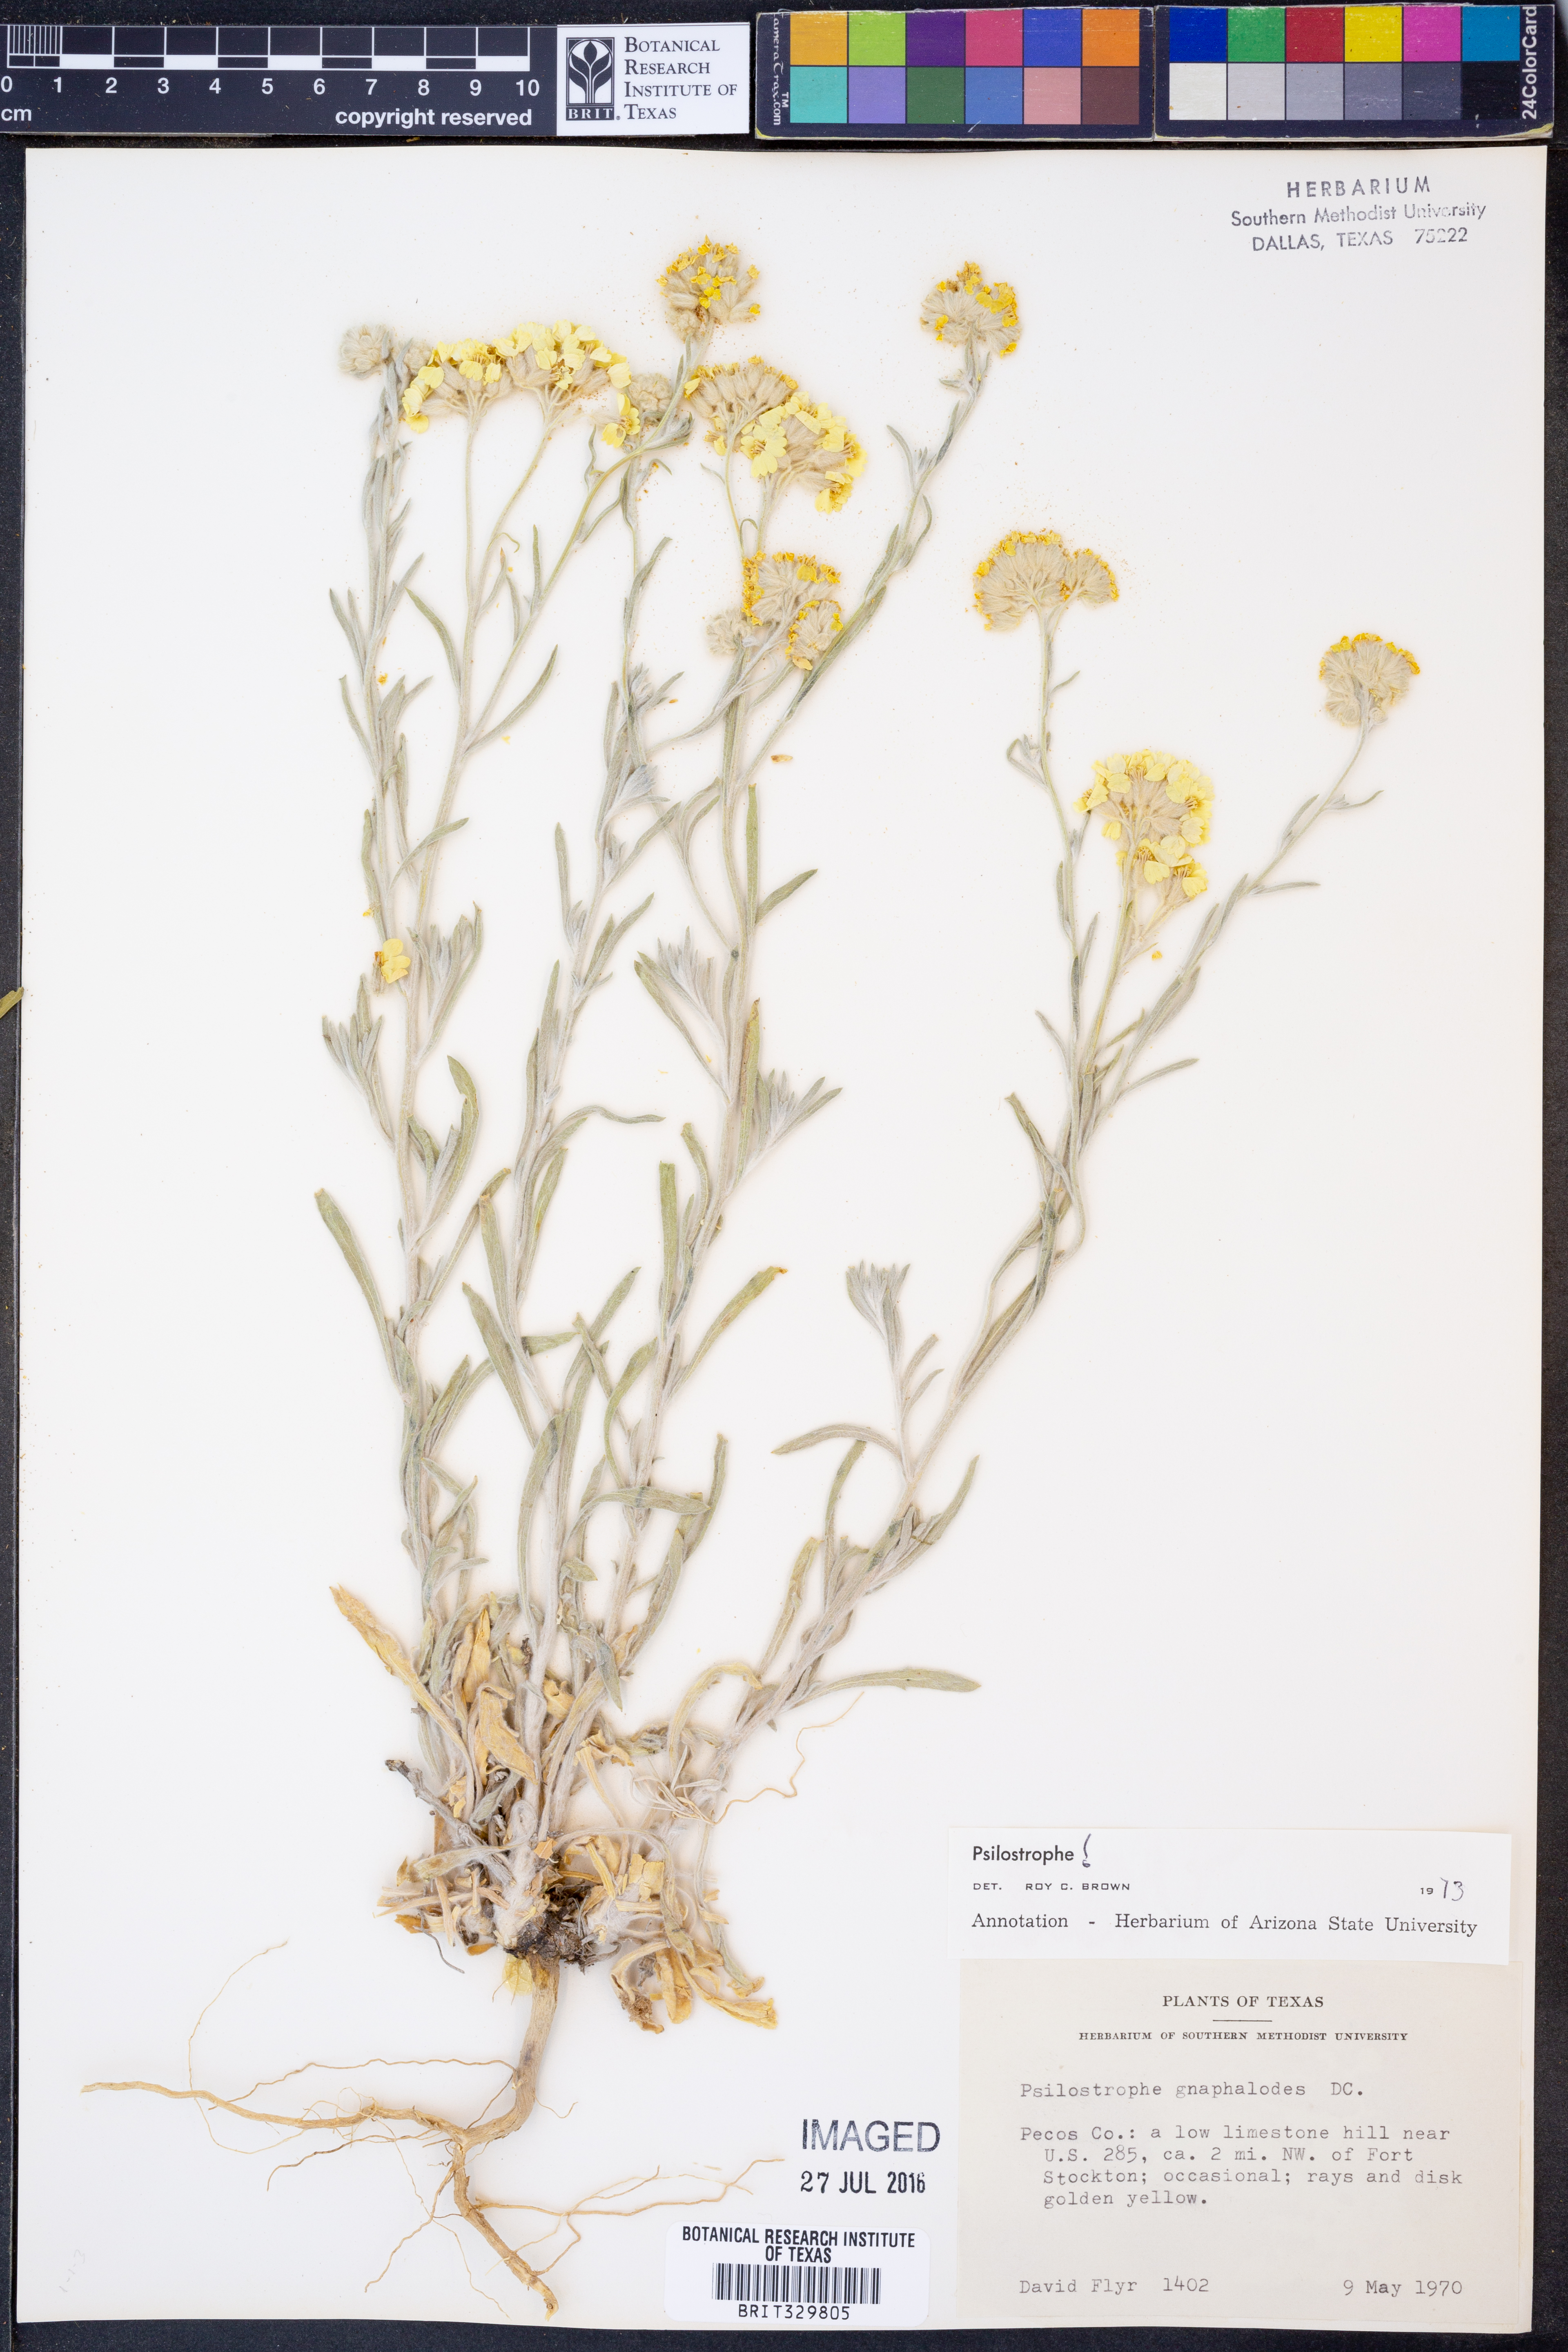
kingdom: Plantae
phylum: Tracheophyta
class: Magnoliopsida
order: Asterales
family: Asteraceae
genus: Psilostrophe
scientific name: Psilostrophe gnaphalioides
